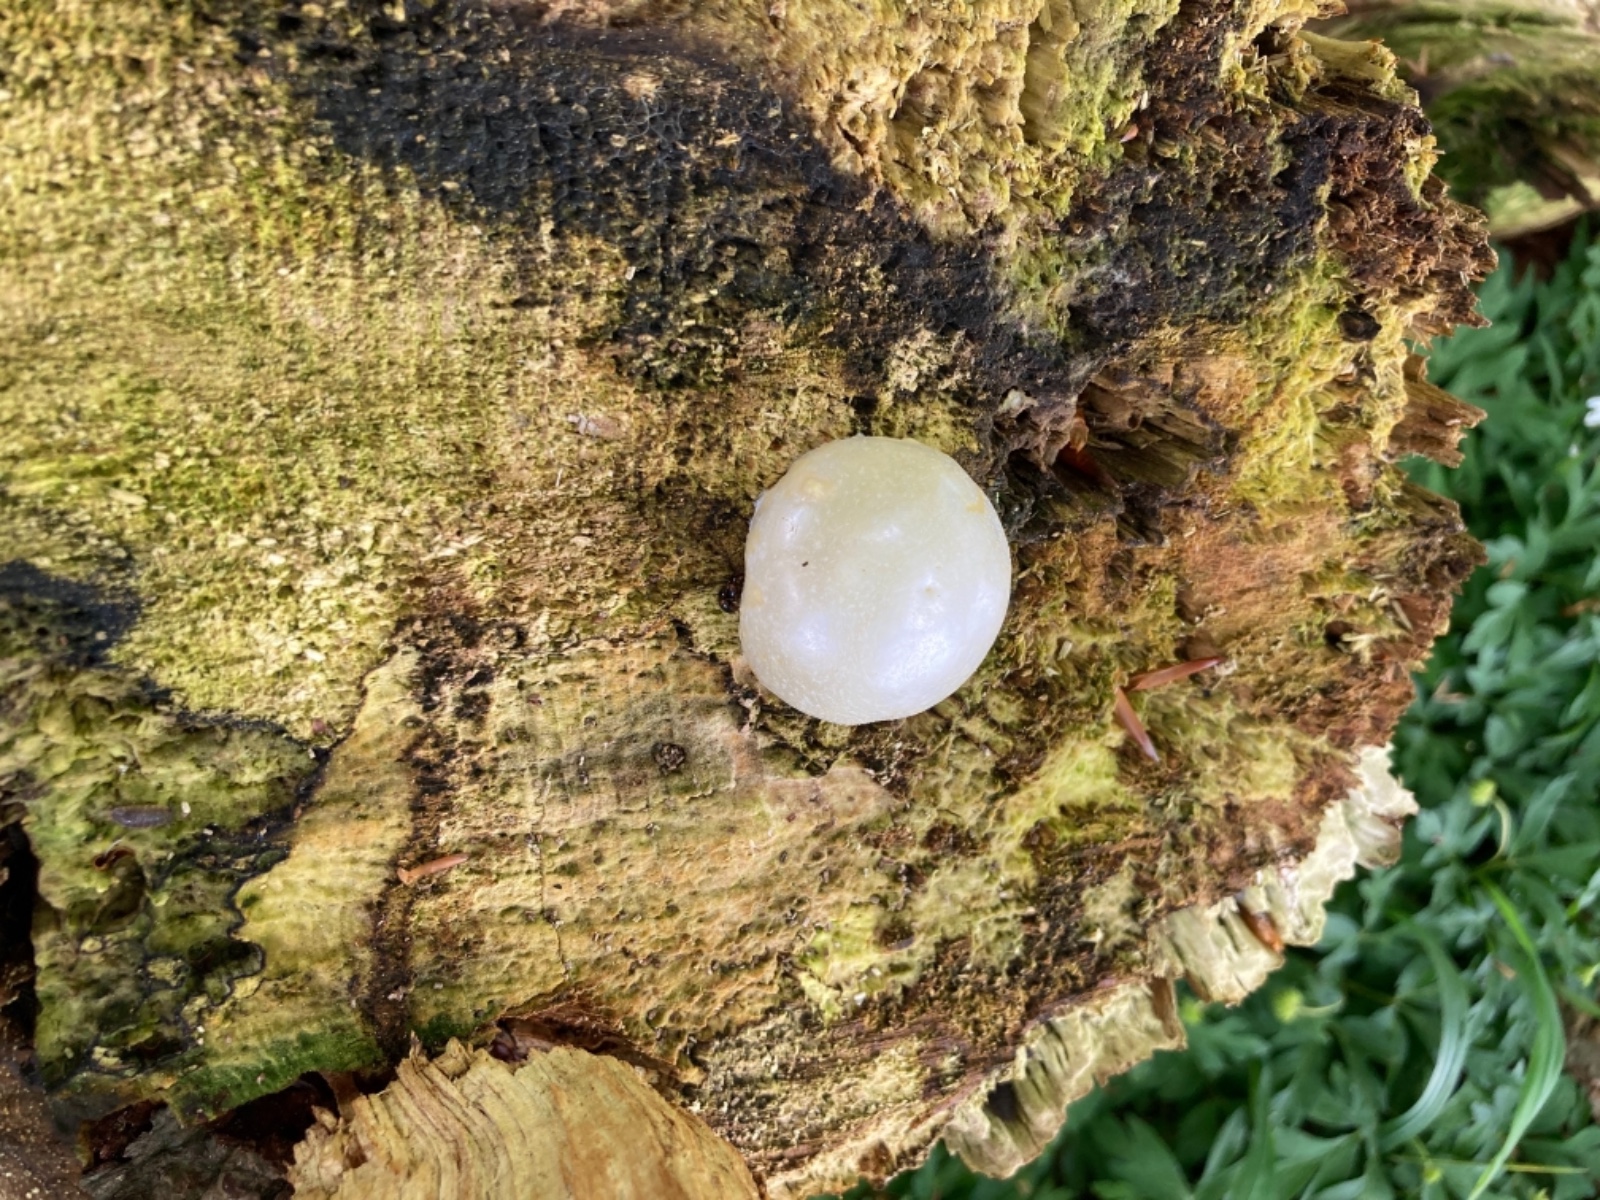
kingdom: Protozoa
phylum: Mycetozoa
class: Myxomycetes
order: Cribrariales
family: Tubiferaceae
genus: Reticularia
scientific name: Reticularia lycoperdon
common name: skinnende støvpude
